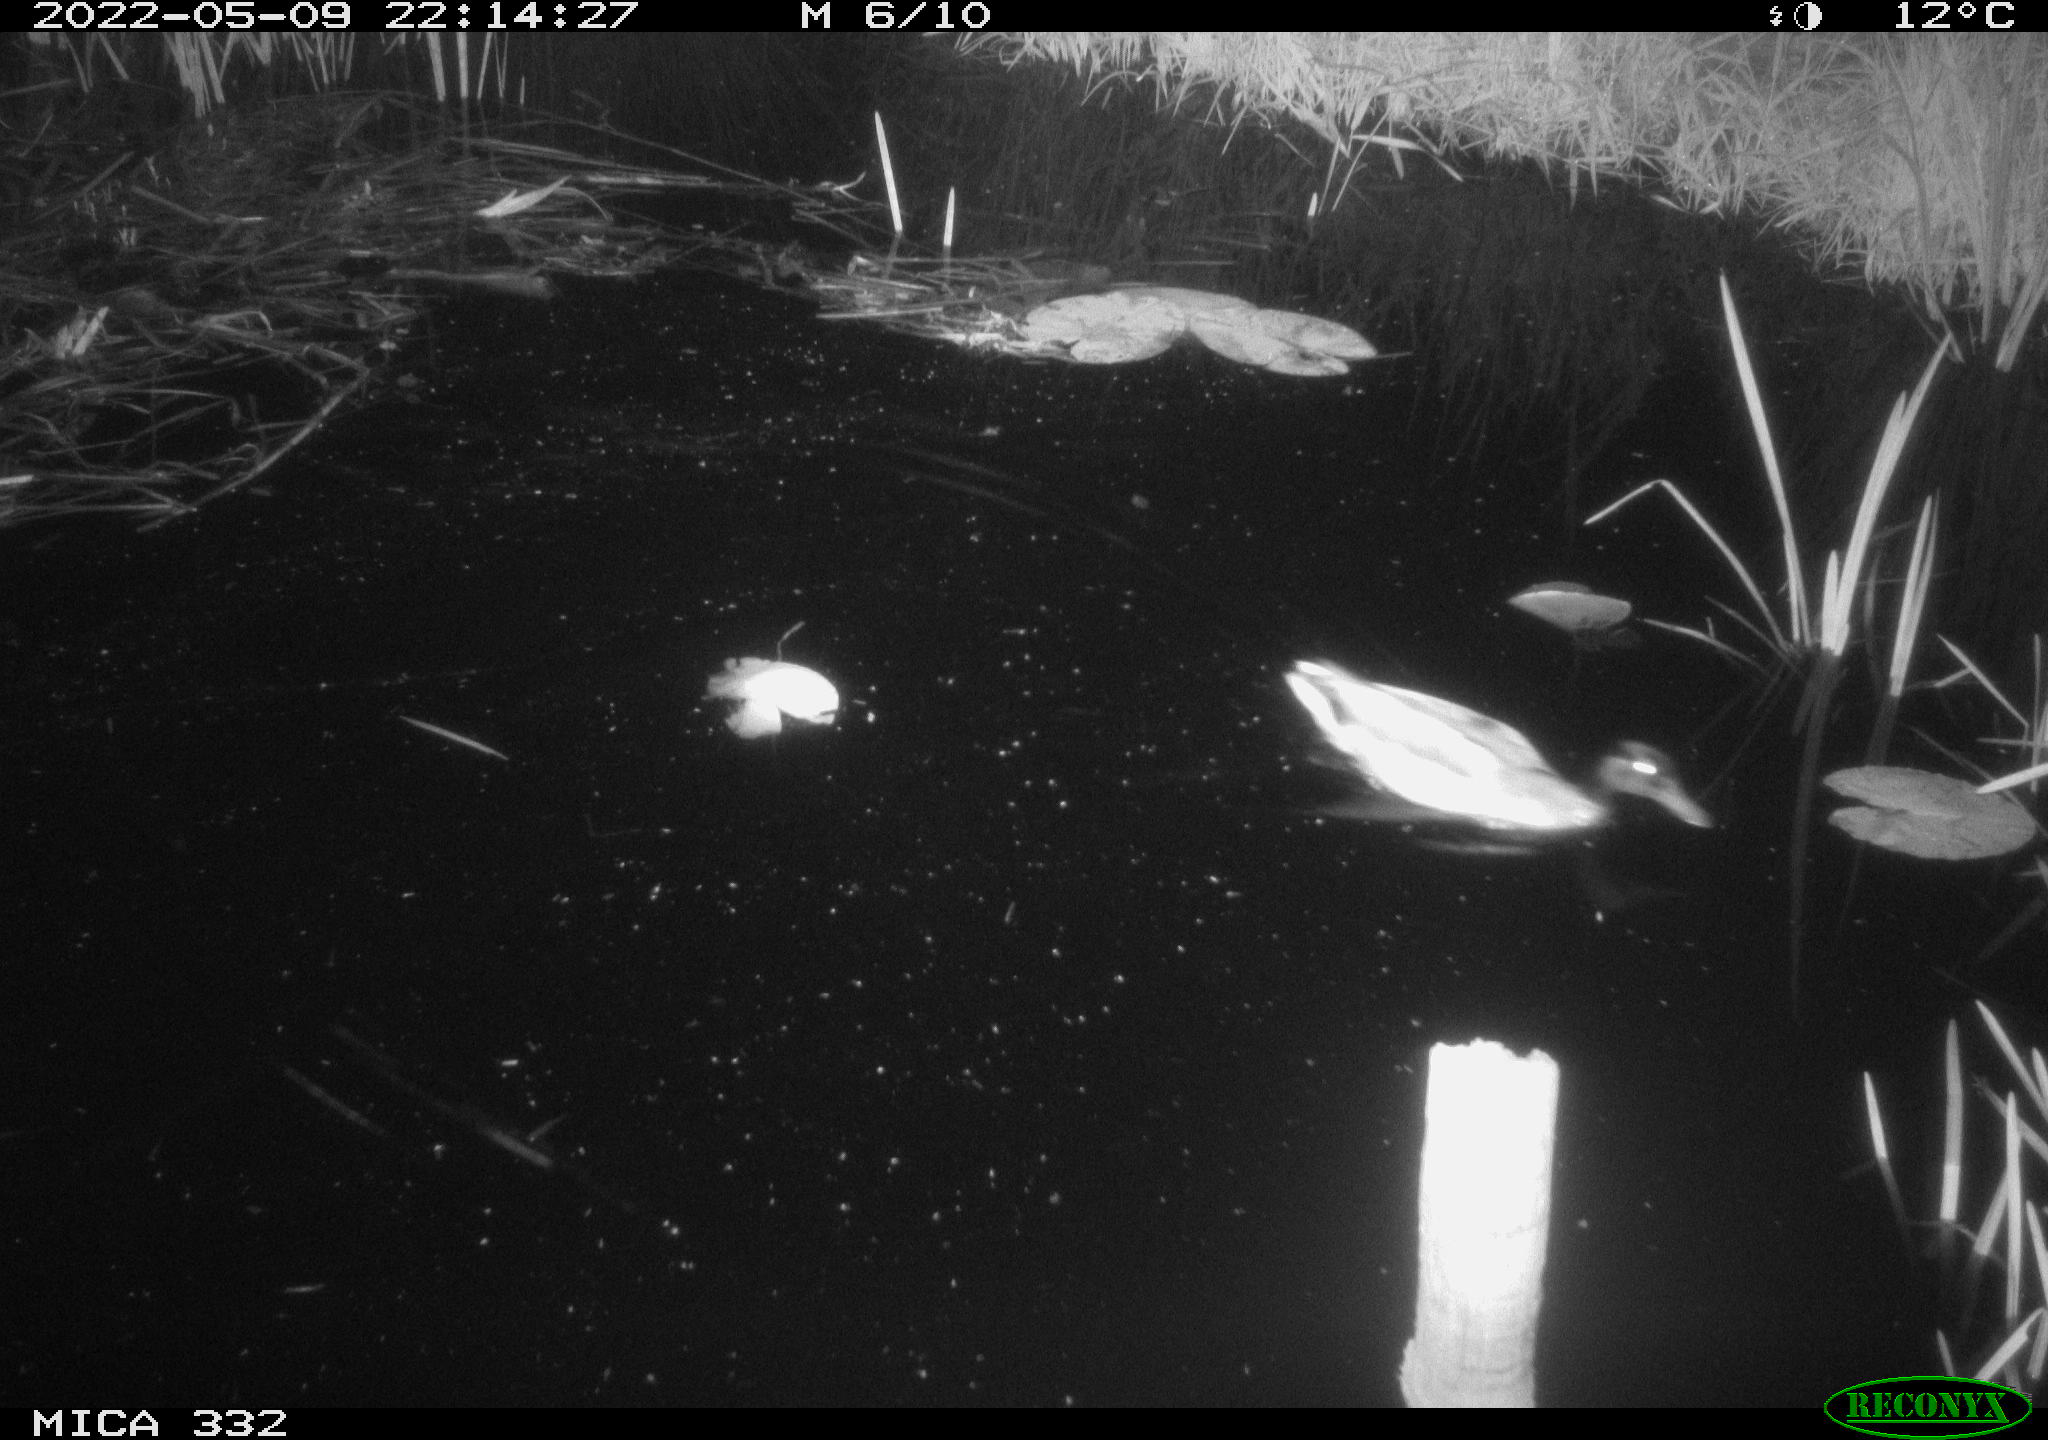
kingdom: Animalia
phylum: Chordata
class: Aves
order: Anseriformes
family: Anatidae
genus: Anas
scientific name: Anas platyrhynchos
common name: Mallard
